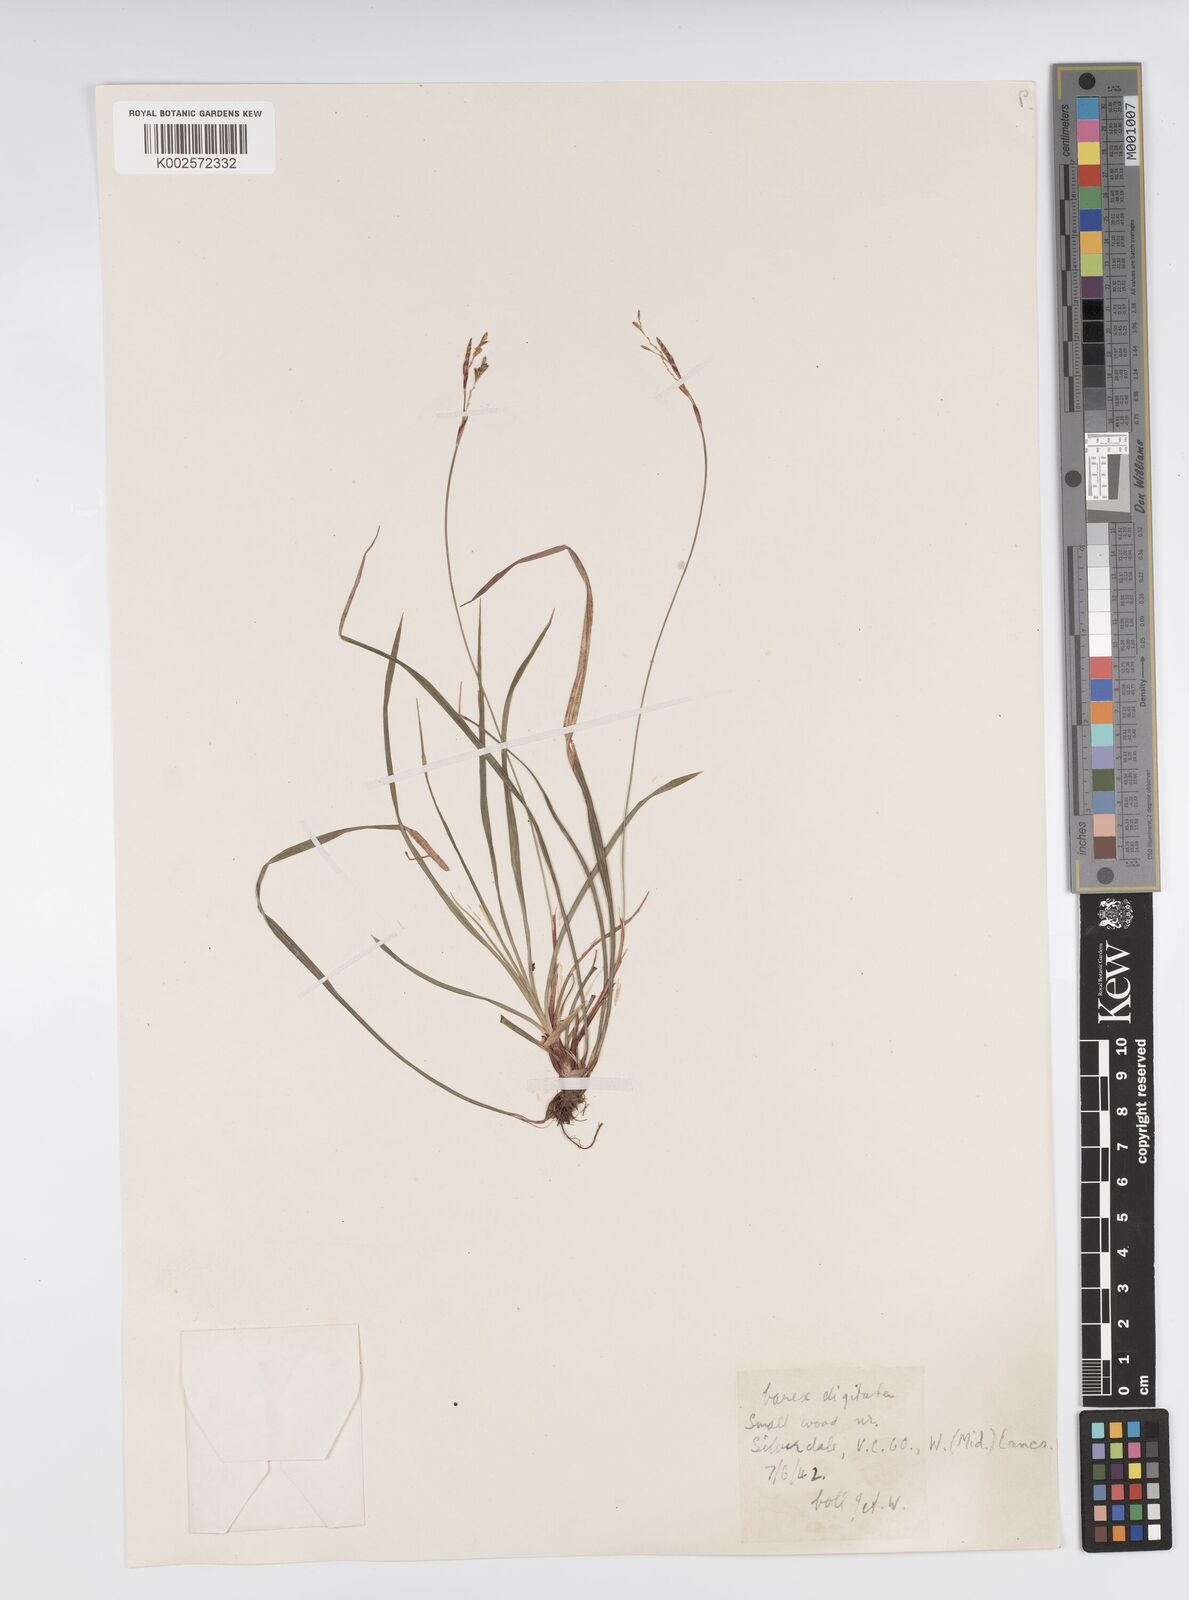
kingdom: Plantae
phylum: Tracheophyta
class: Liliopsida
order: Poales
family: Cyperaceae
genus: Carex
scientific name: Carex digitata
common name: Fingered sedge
